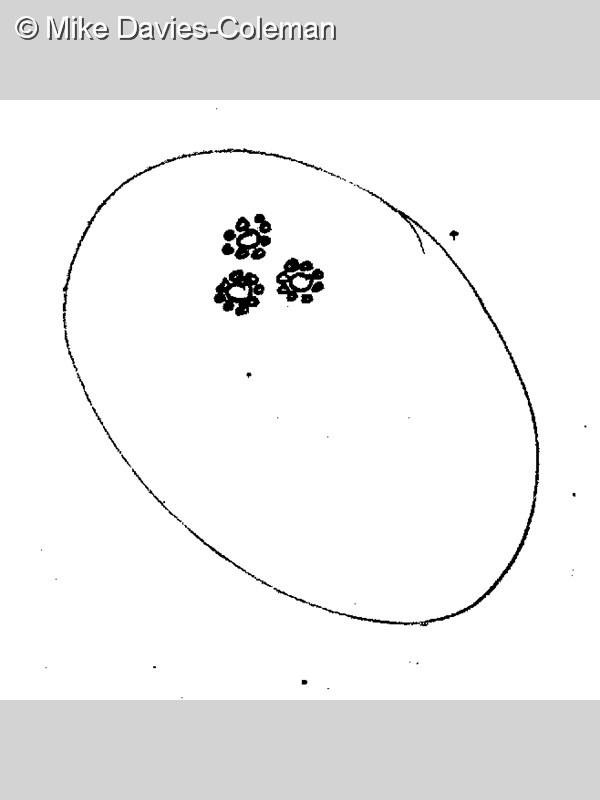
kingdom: Animalia
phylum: Chordata
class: Ascidiacea
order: Aplousobranchia
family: Polyclinidae
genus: Aplidiopsis
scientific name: Aplidiopsis
